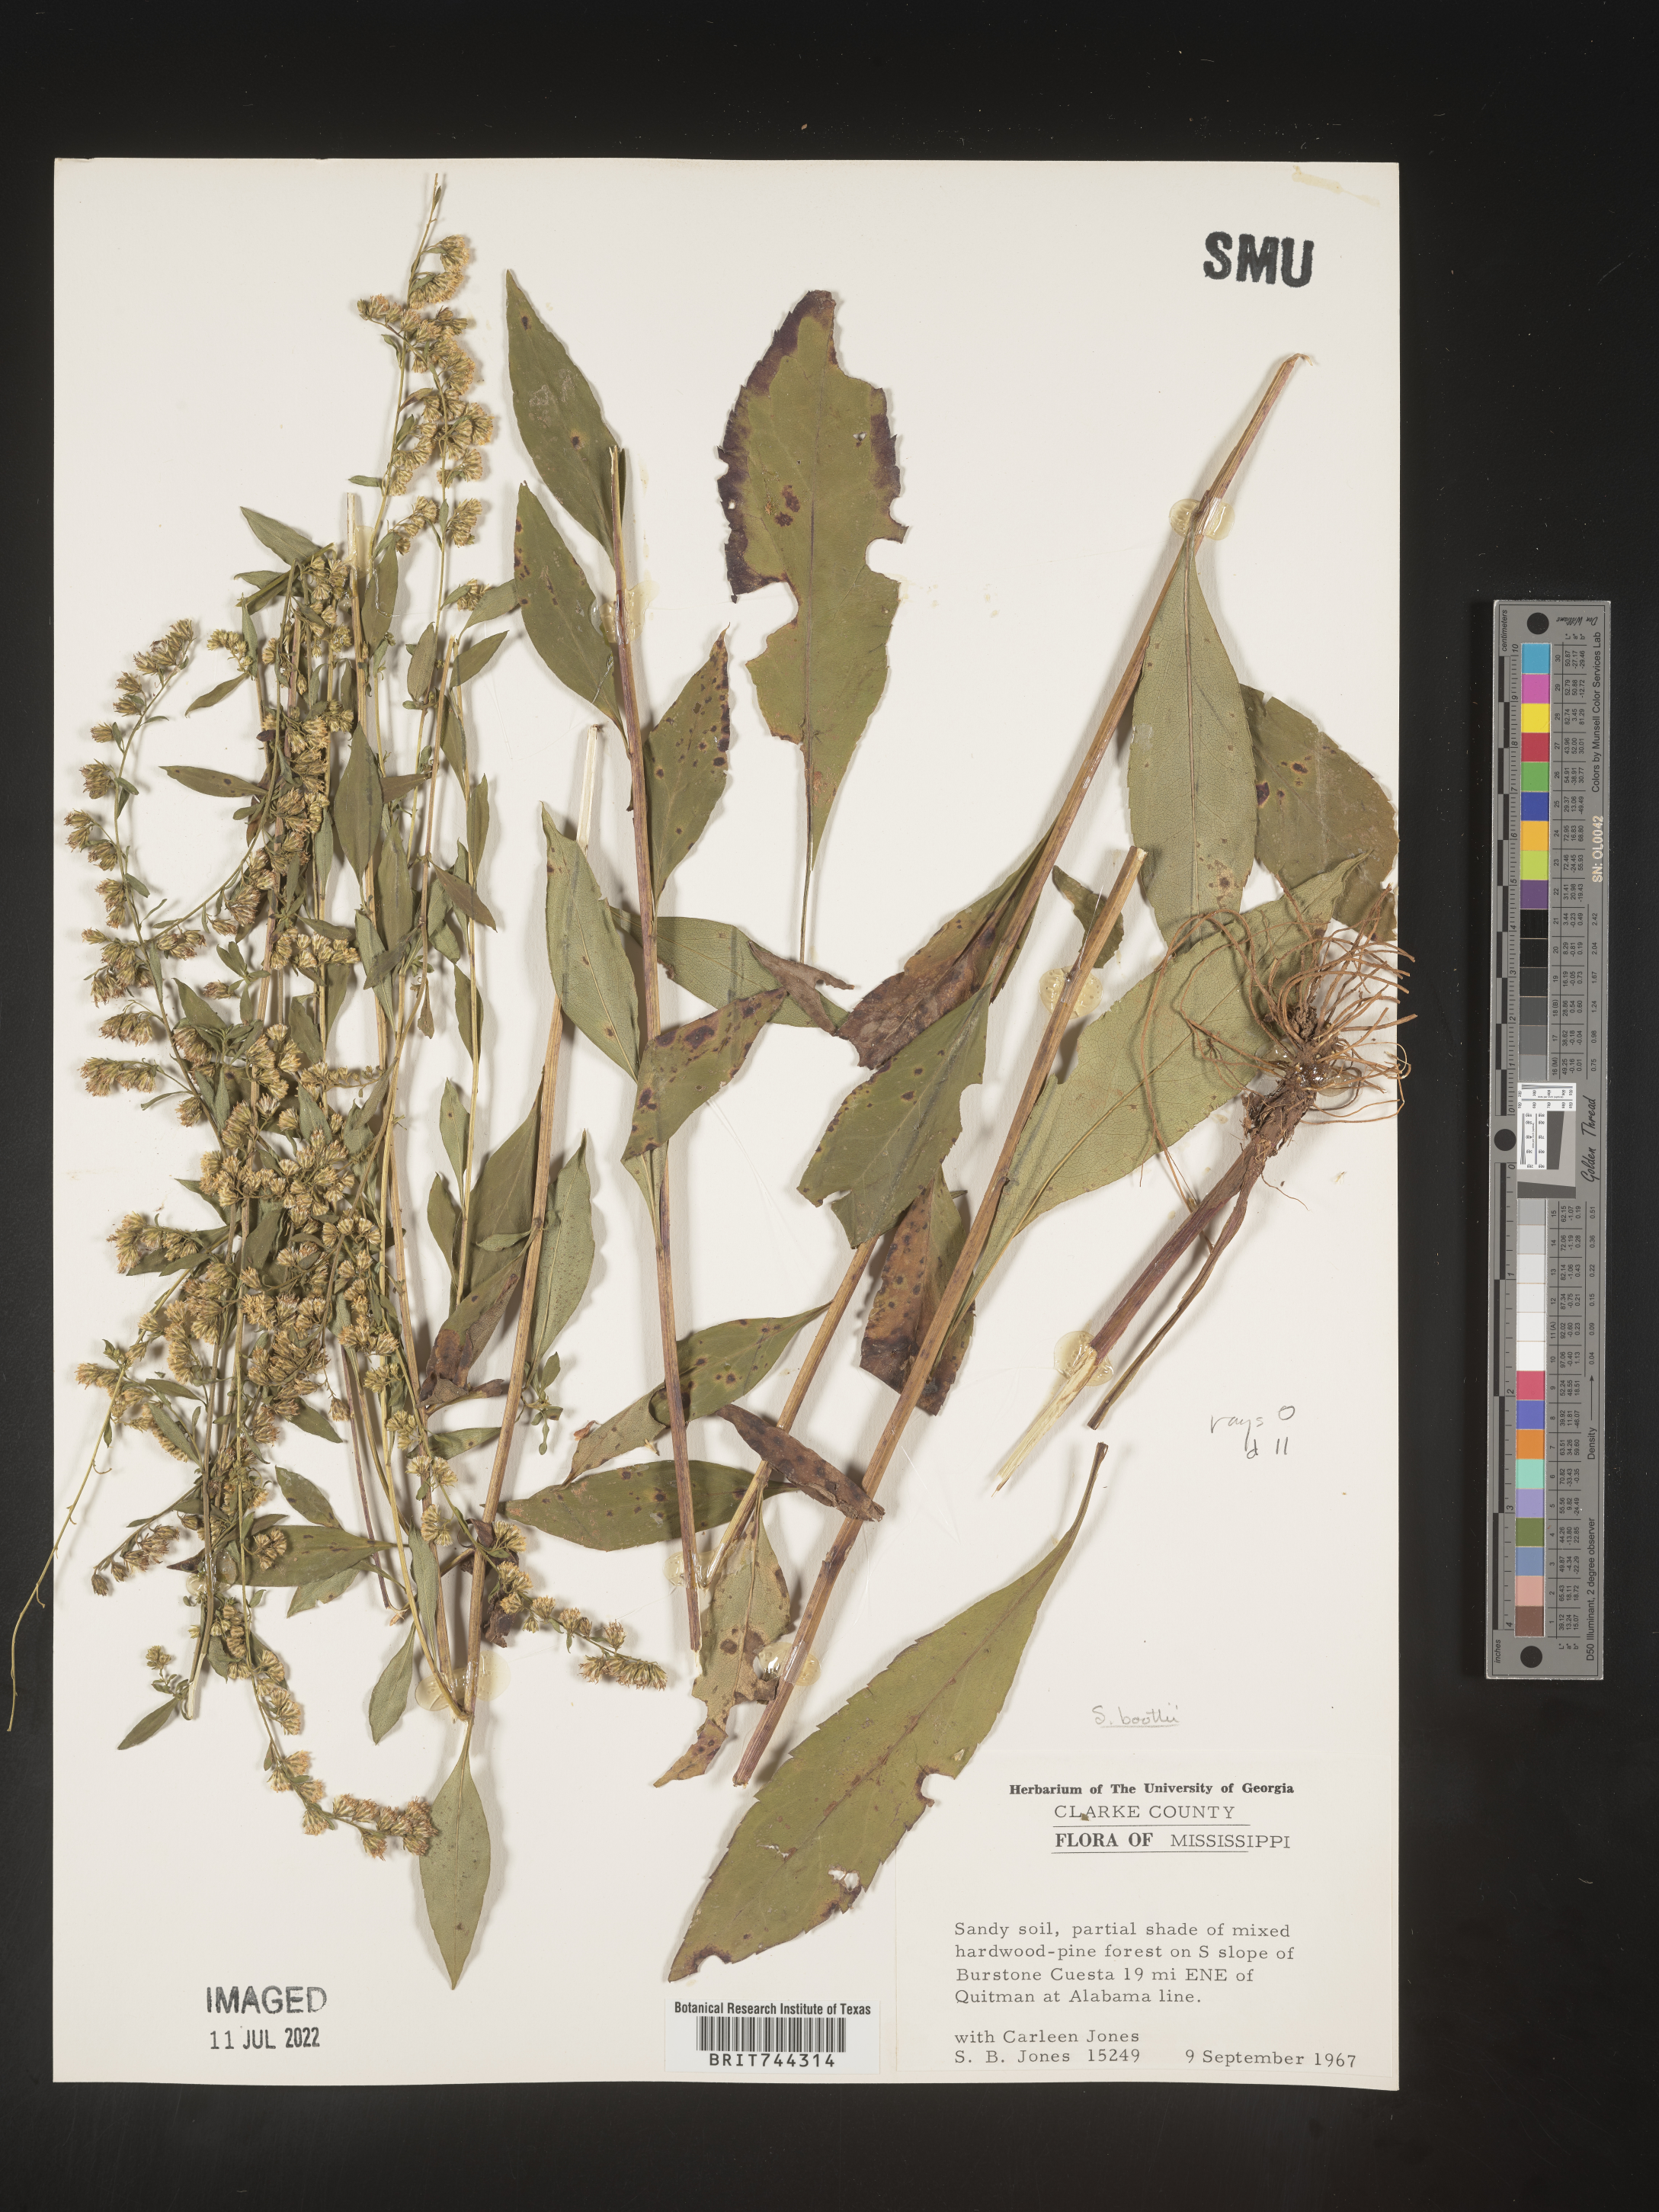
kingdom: Plantae
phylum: Tracheophyta
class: Magnoliopsida
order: Asterales
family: Asteraceae
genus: Solidago
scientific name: Solidago arguta
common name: Atlantic goldenrod
